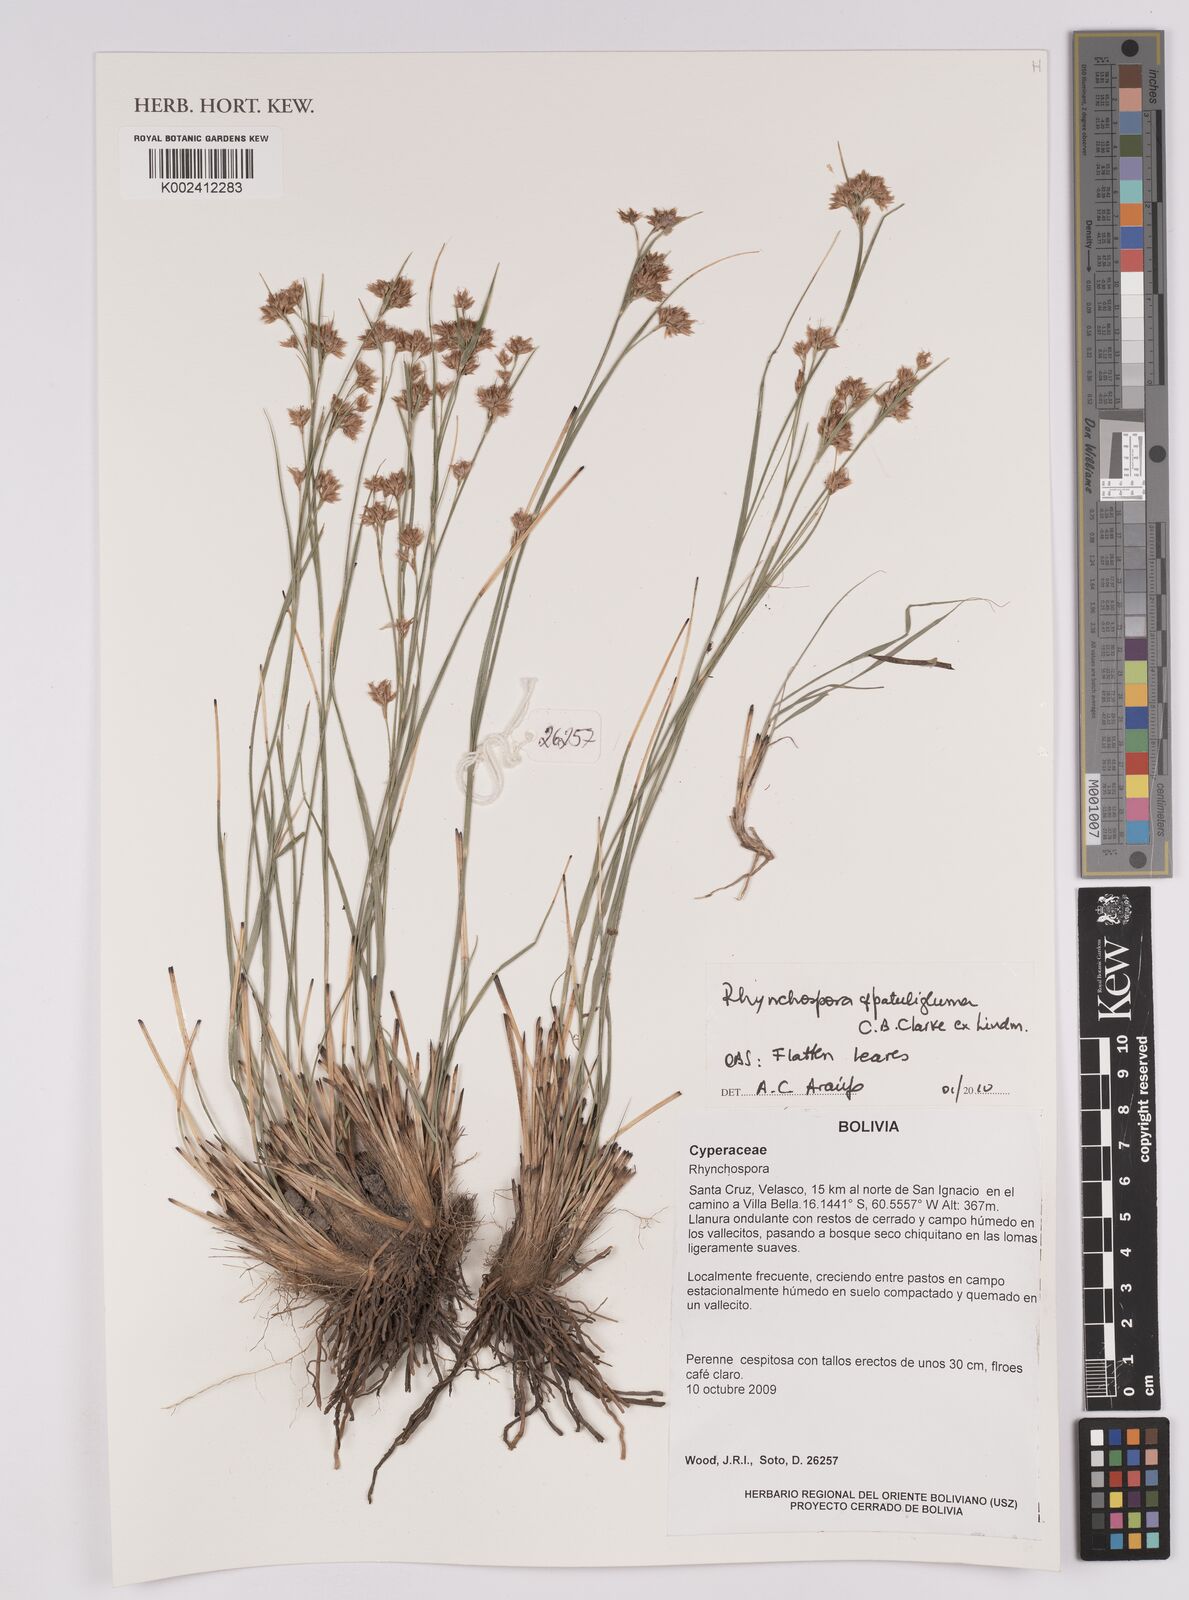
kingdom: Plantae
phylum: Tracheophyta
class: Liliopsida
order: Poales
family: Cyperaceae
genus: Rhynchospora
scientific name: Rhynchospora patuligluma
